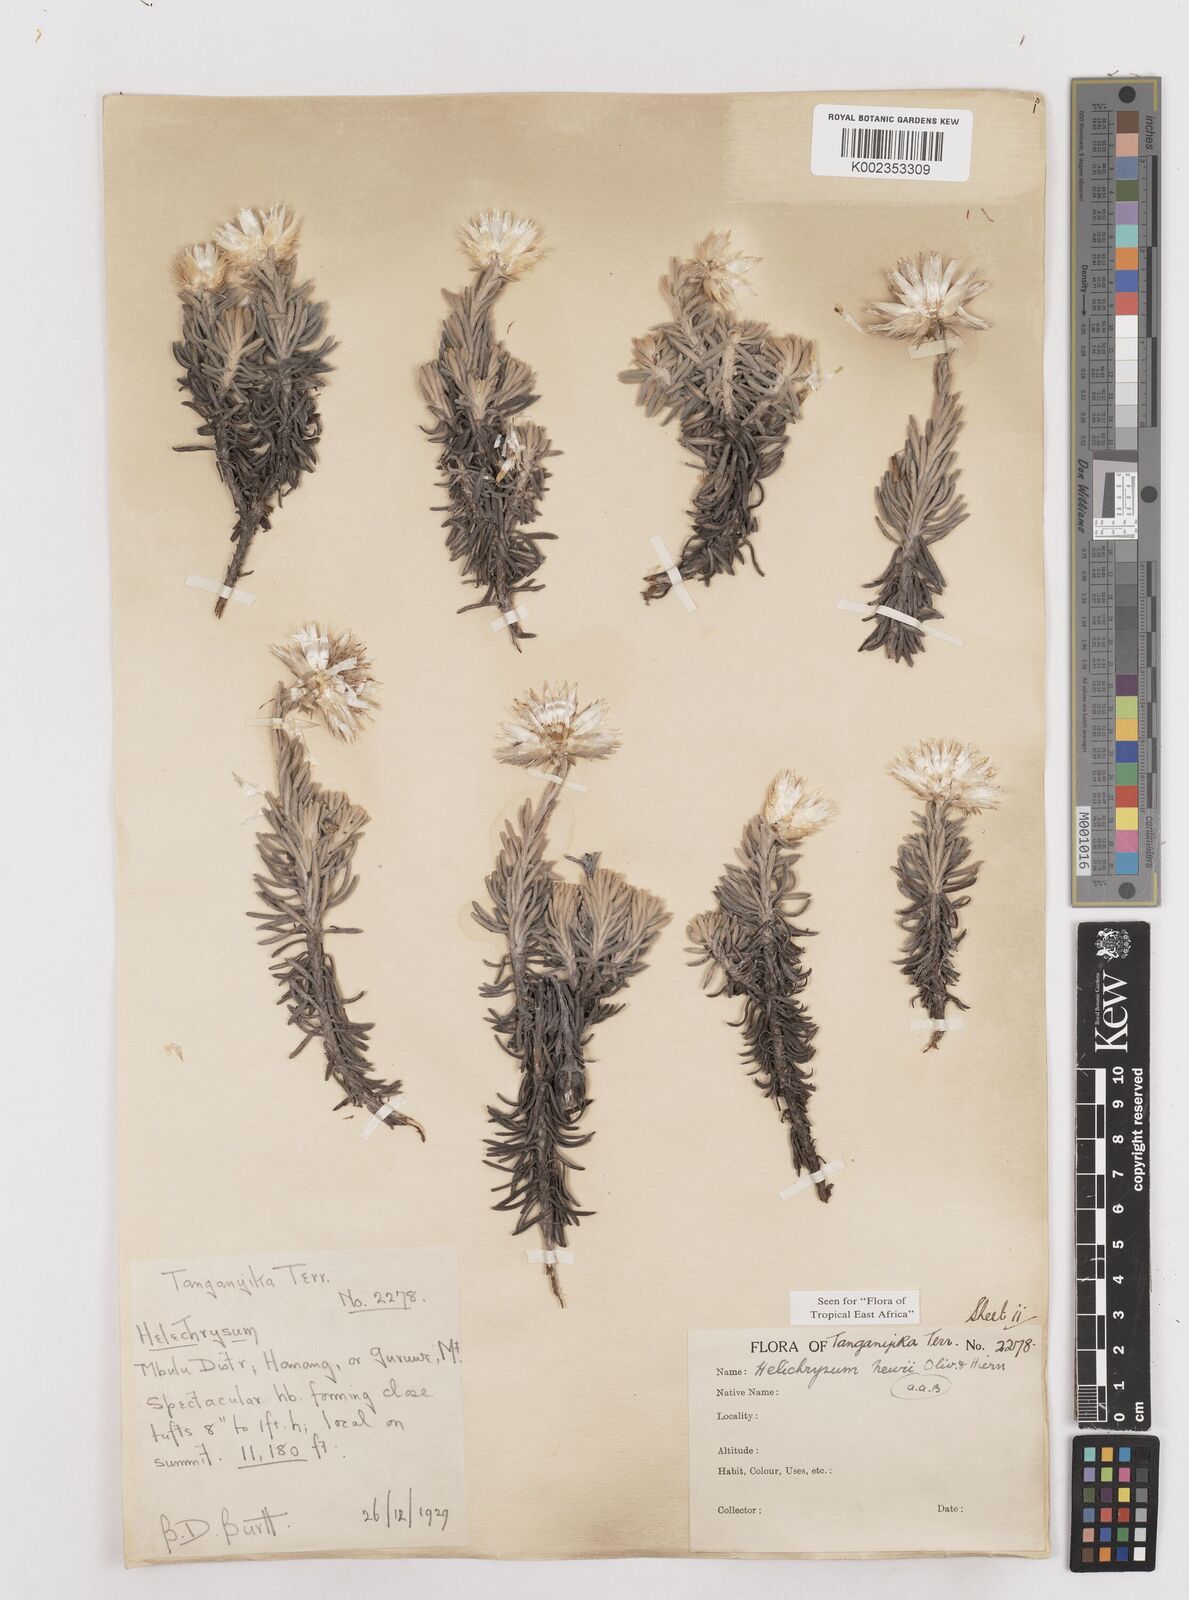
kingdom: Plantae
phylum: Tracheophyta
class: Magnoliopsida
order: Asterales
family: Asteraceae
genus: Helichrysum
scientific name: Helichrysum newii
